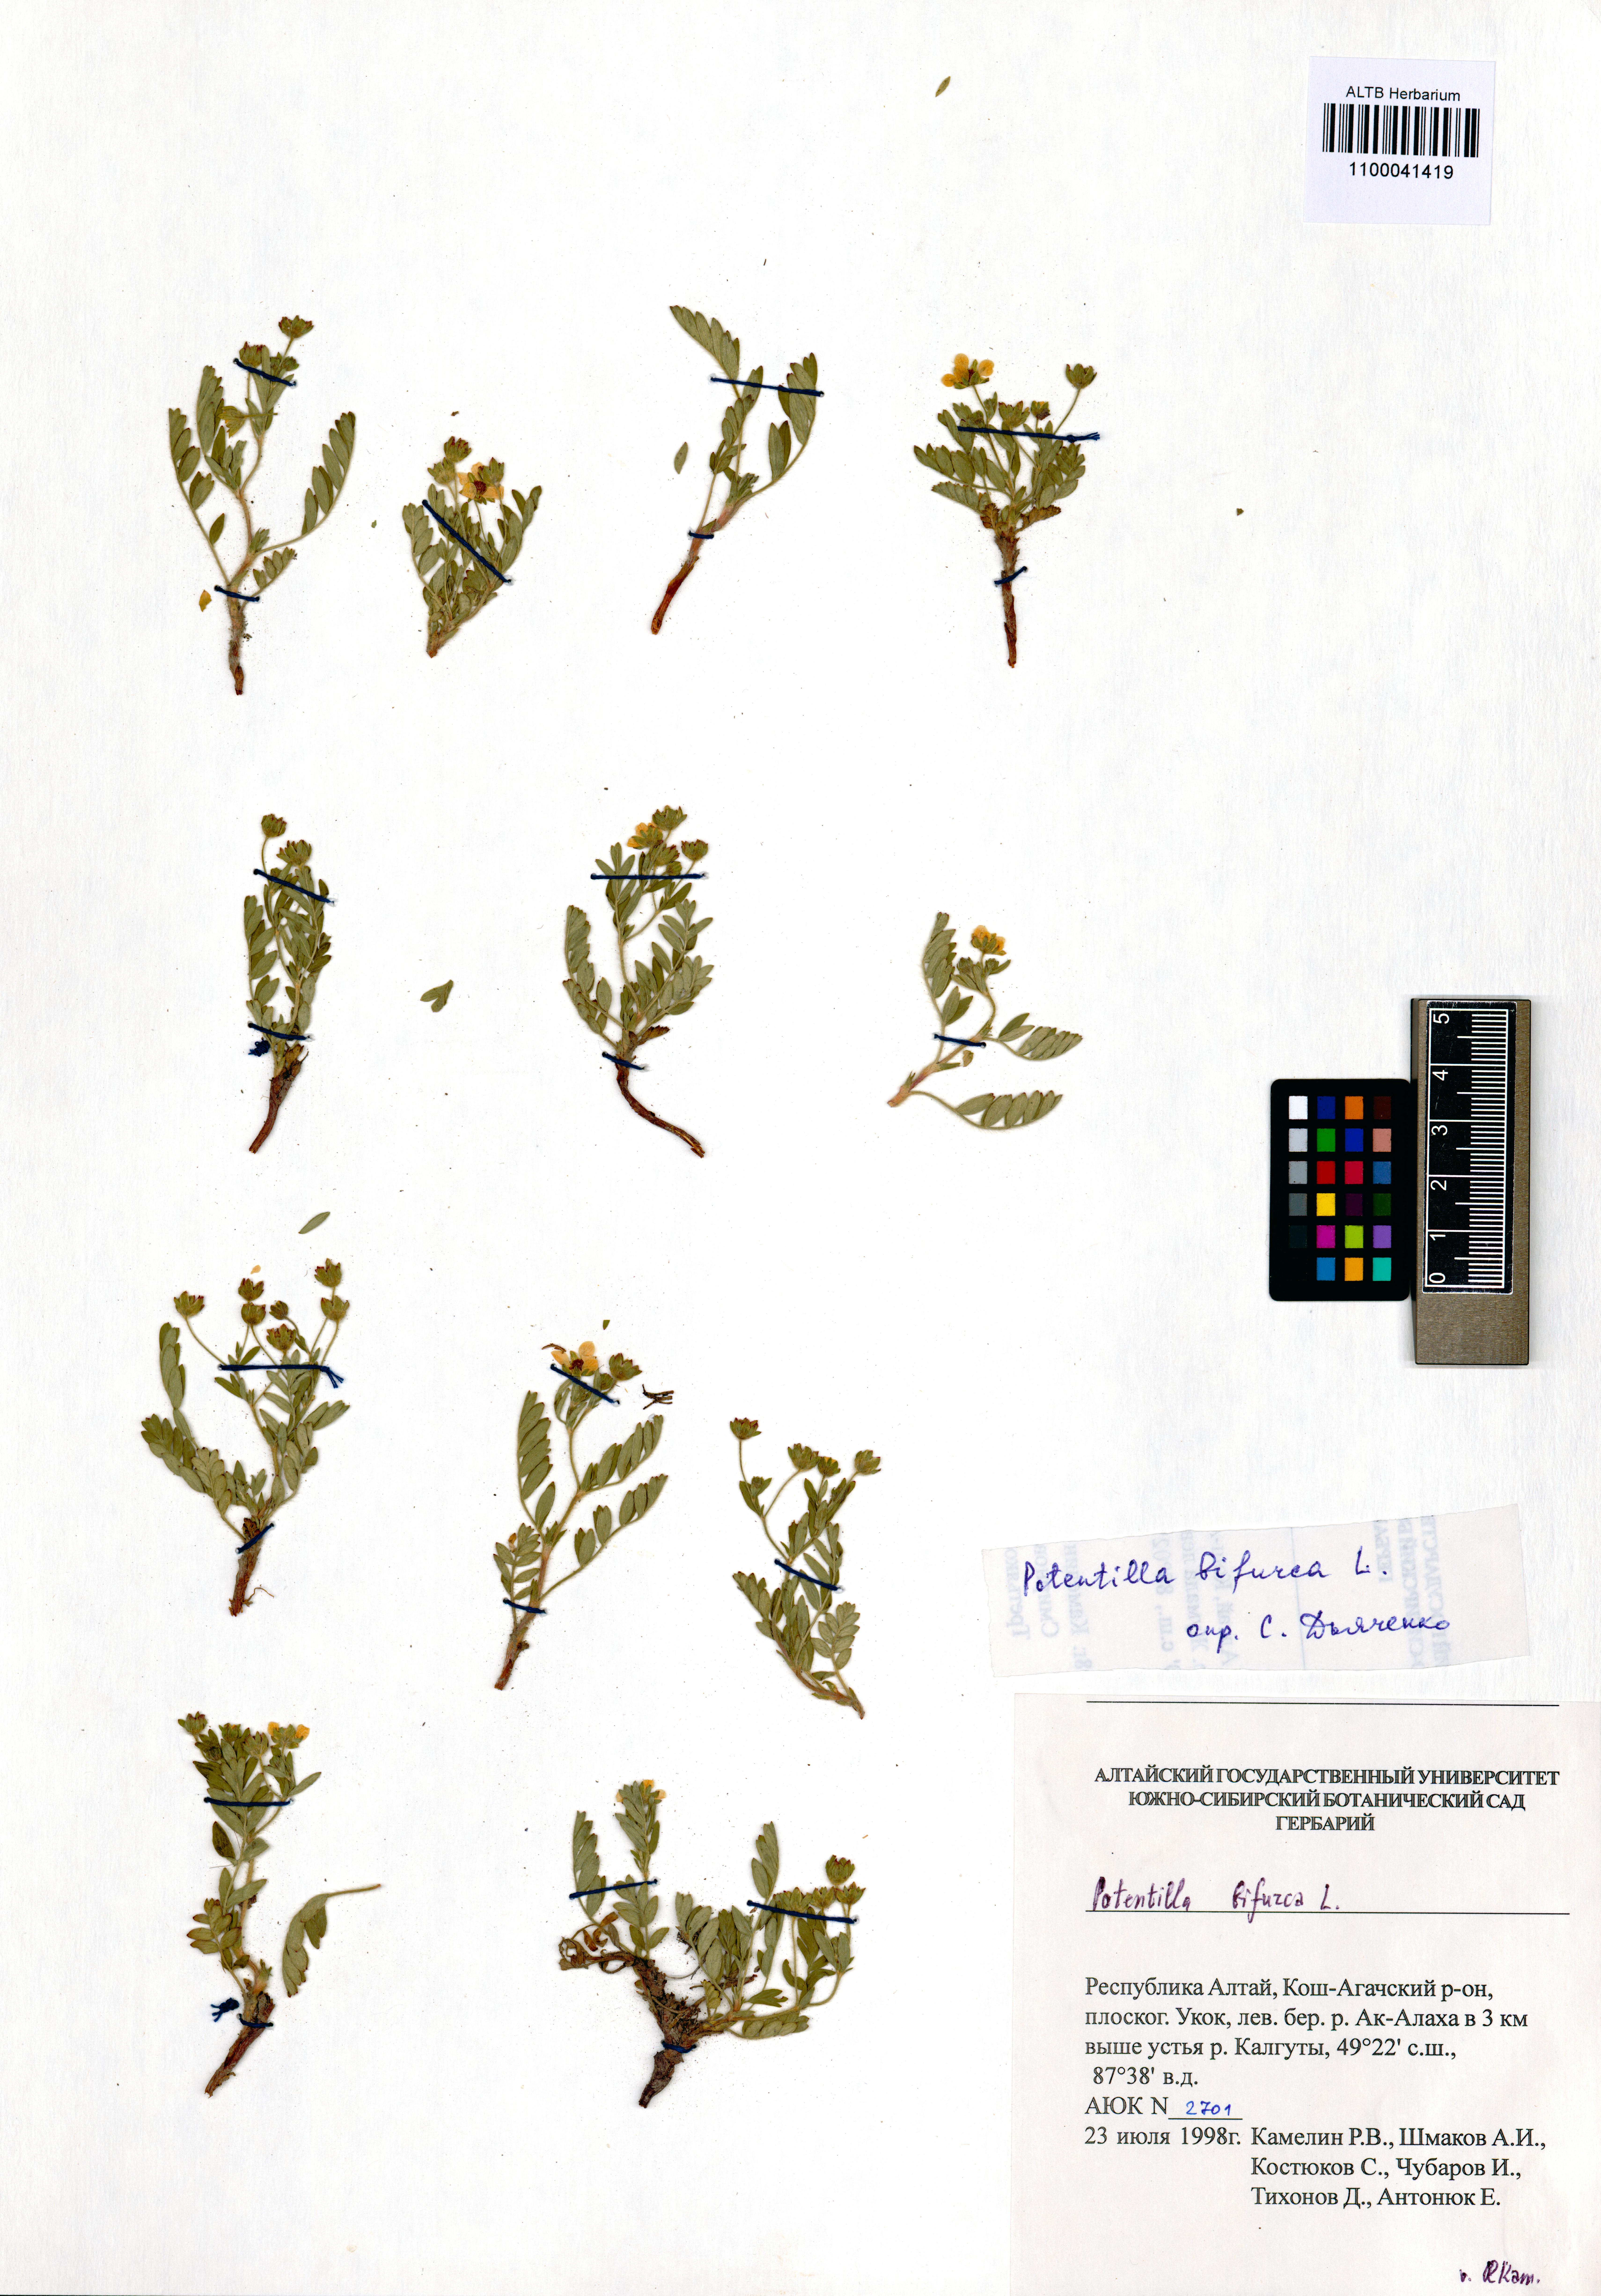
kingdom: Plantae
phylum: Tracheophyta
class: Magnoliopsida
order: Rosales
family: Rosaceae
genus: Sibbaldianthe
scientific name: Sibbaldianthe bifurca
